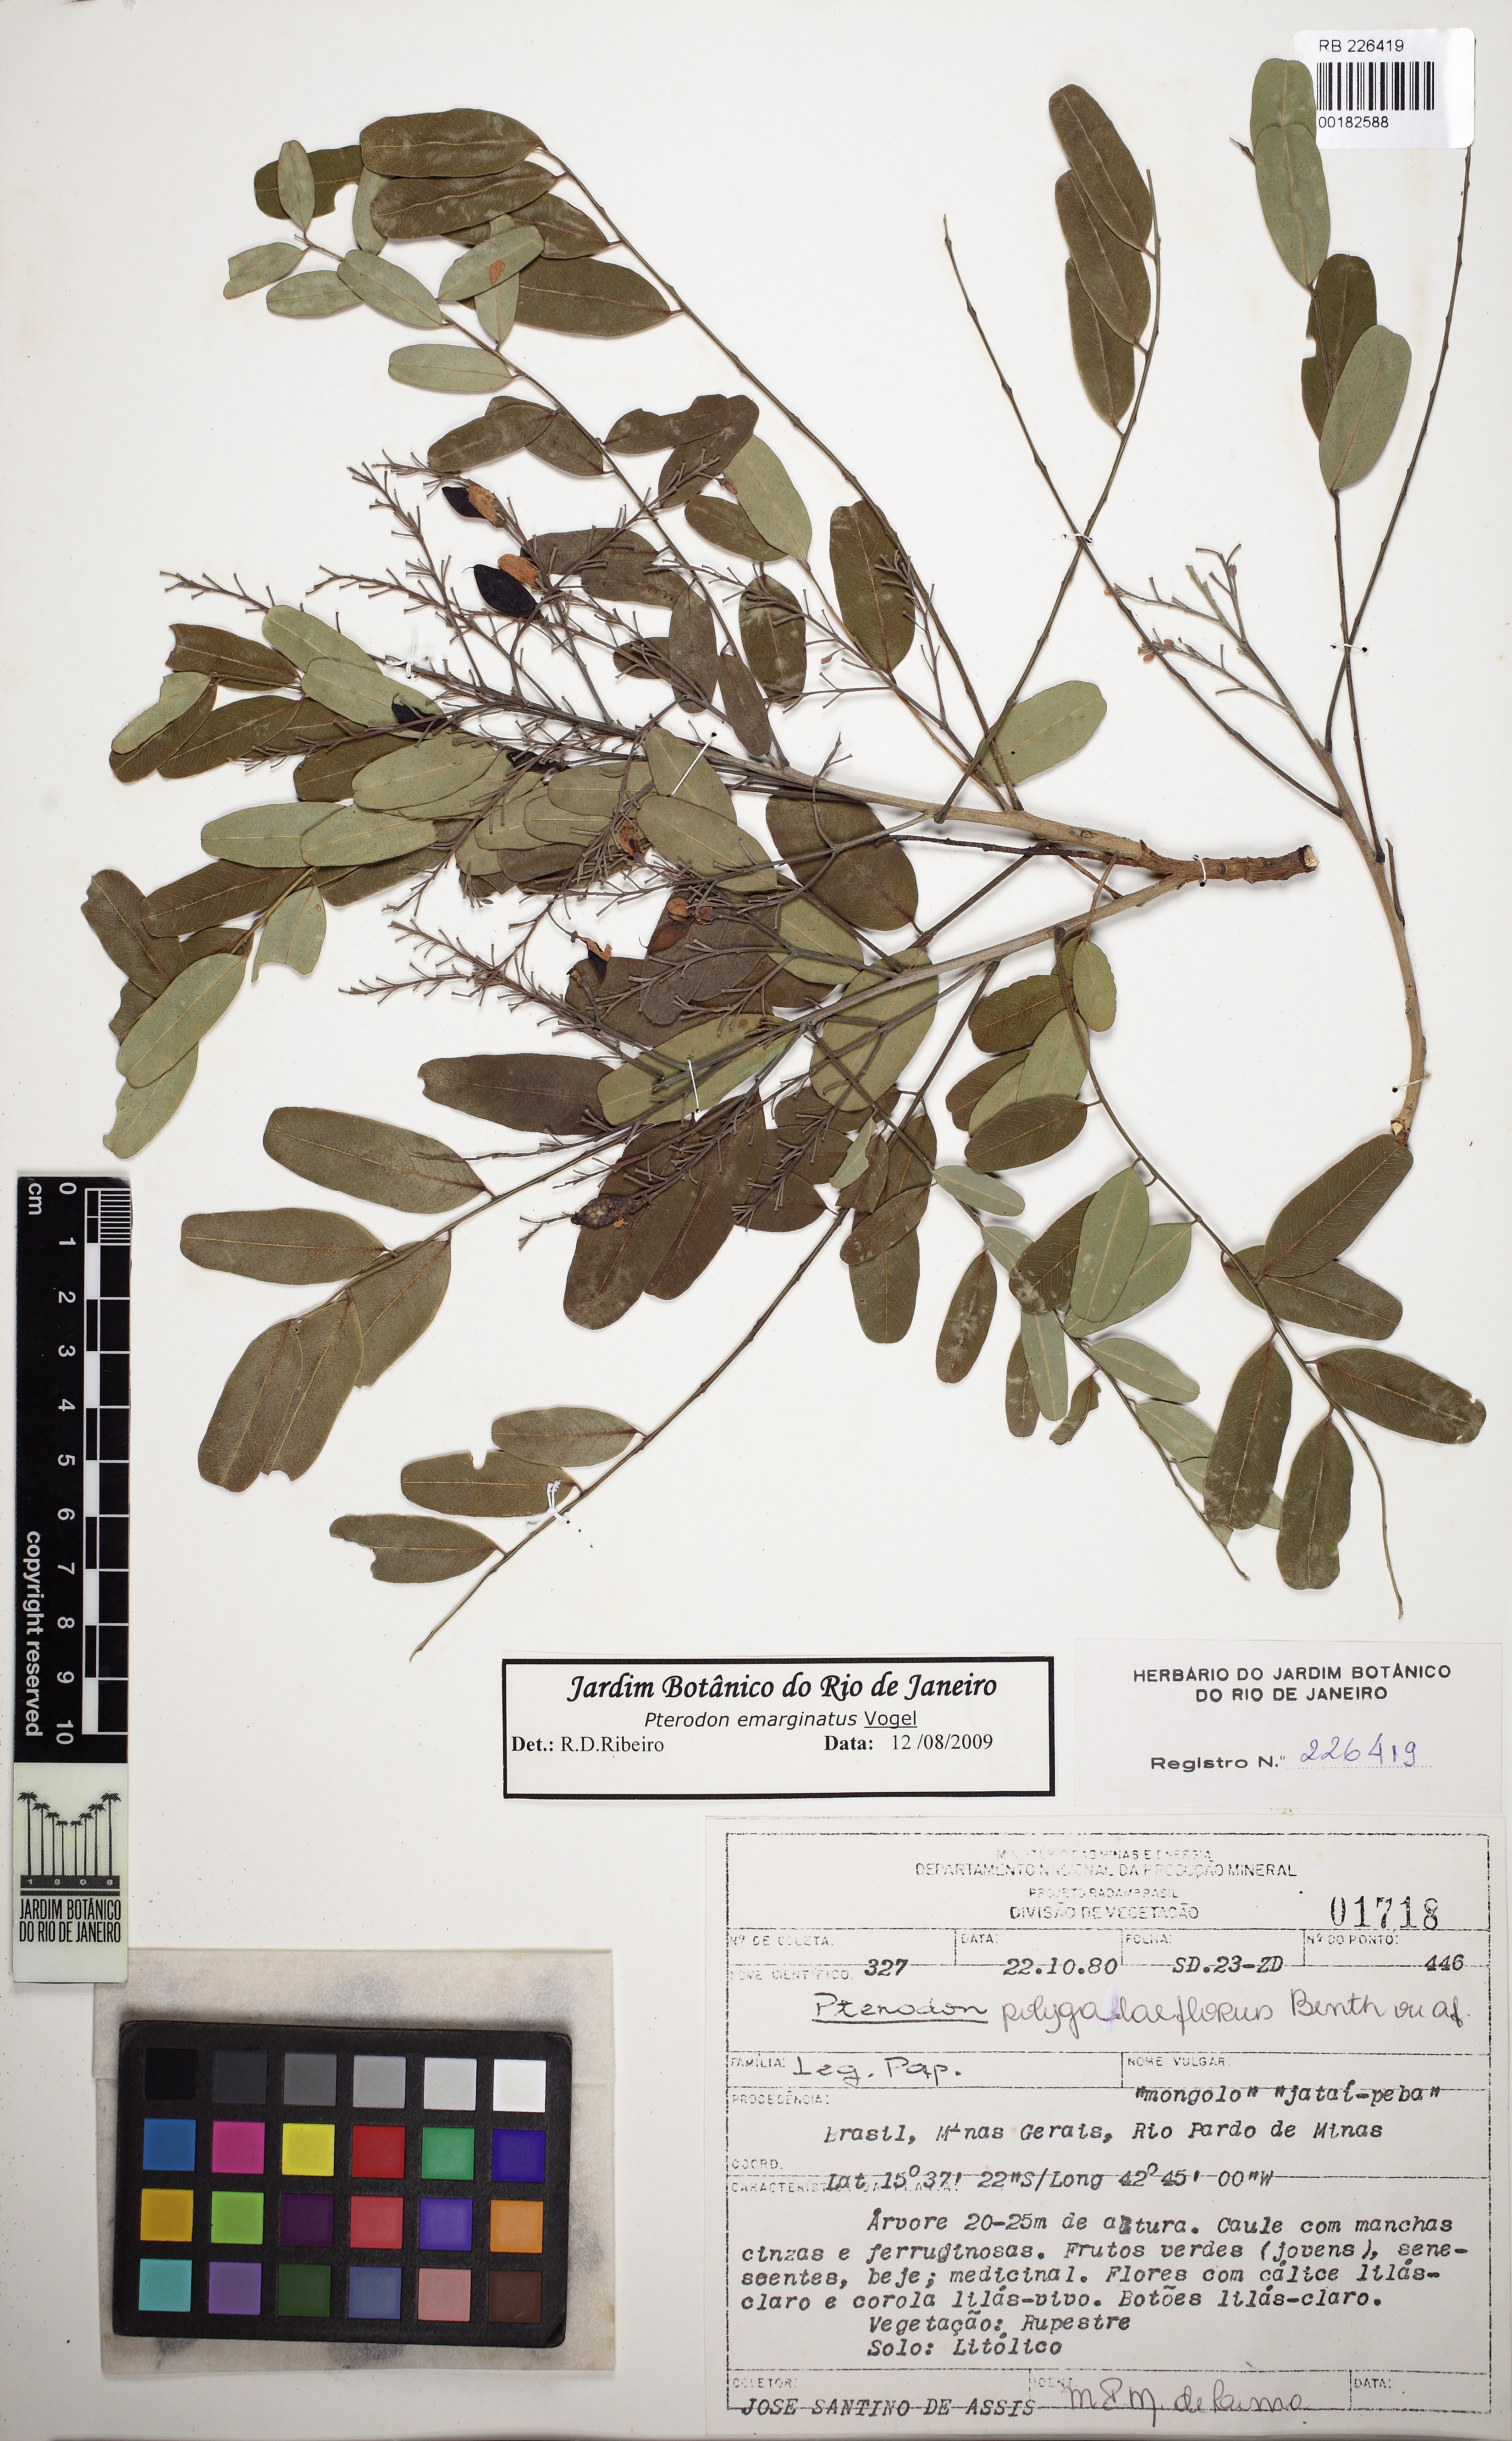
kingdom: Plantae
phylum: Tracheophyta
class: Magnoliopsida
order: Fabales
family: Fabaceae
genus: Pterodon
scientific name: Pterodon emarginatus
